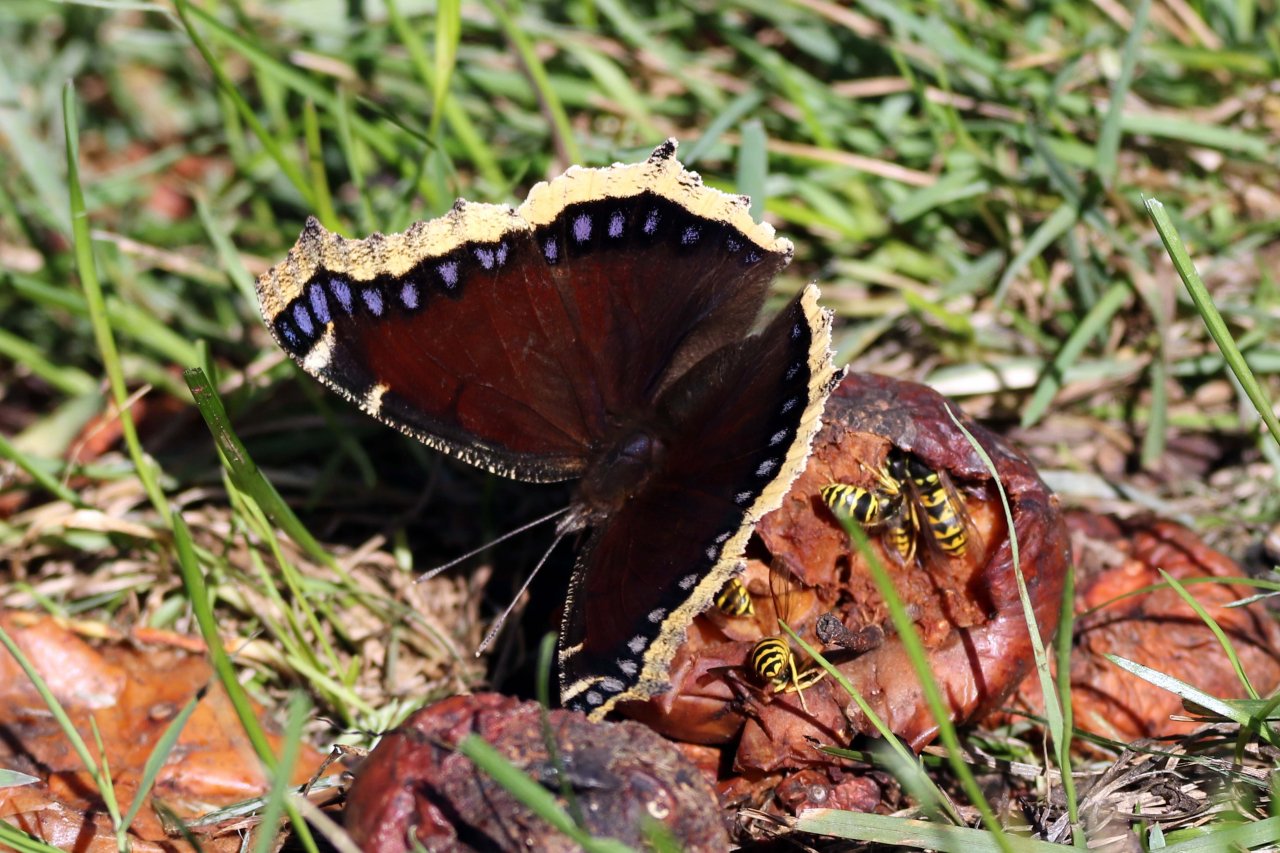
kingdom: Animalia
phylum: Arthropoda
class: Insecta
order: Lepidoptera
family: Nymphalidae
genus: Nymphalis
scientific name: Nymphalis antiopa
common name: Mourning Cloak
